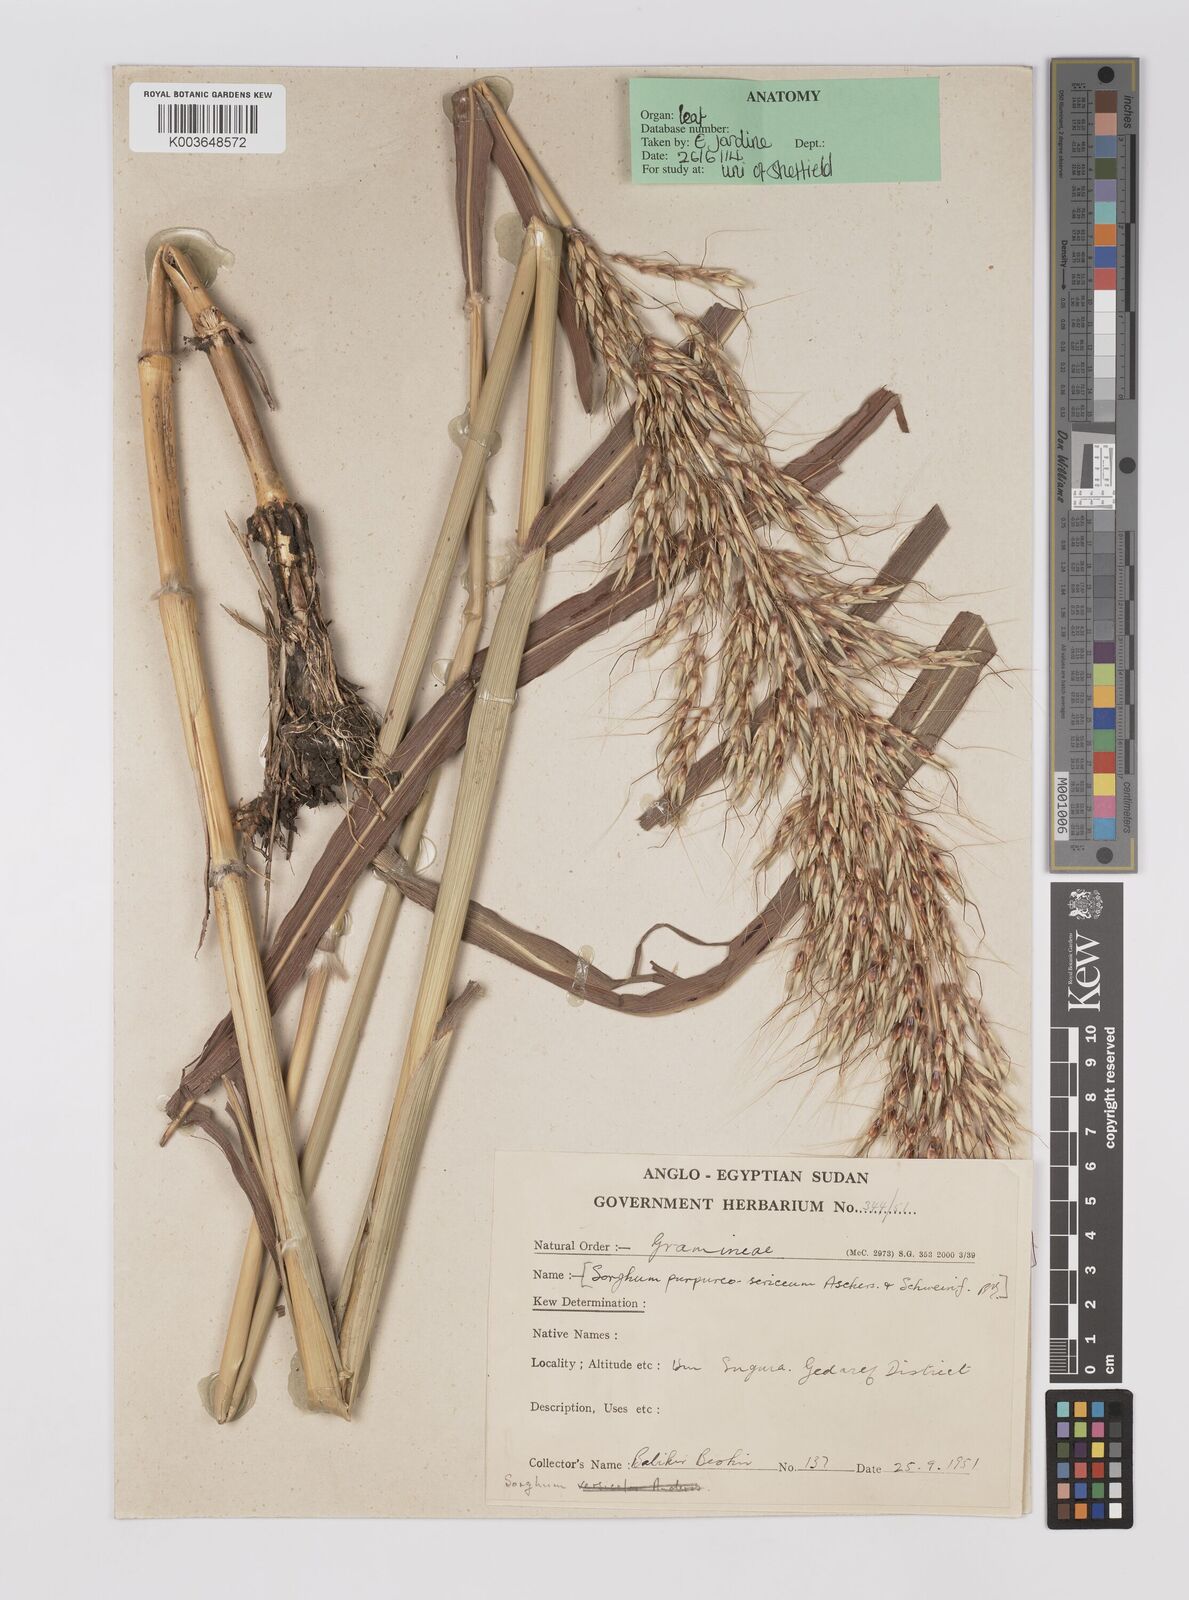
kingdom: Plantae
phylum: Tracheophyta
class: Liliopsida
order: Poales
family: Poaceae
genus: Sarga
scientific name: Sarga purpureosericea
